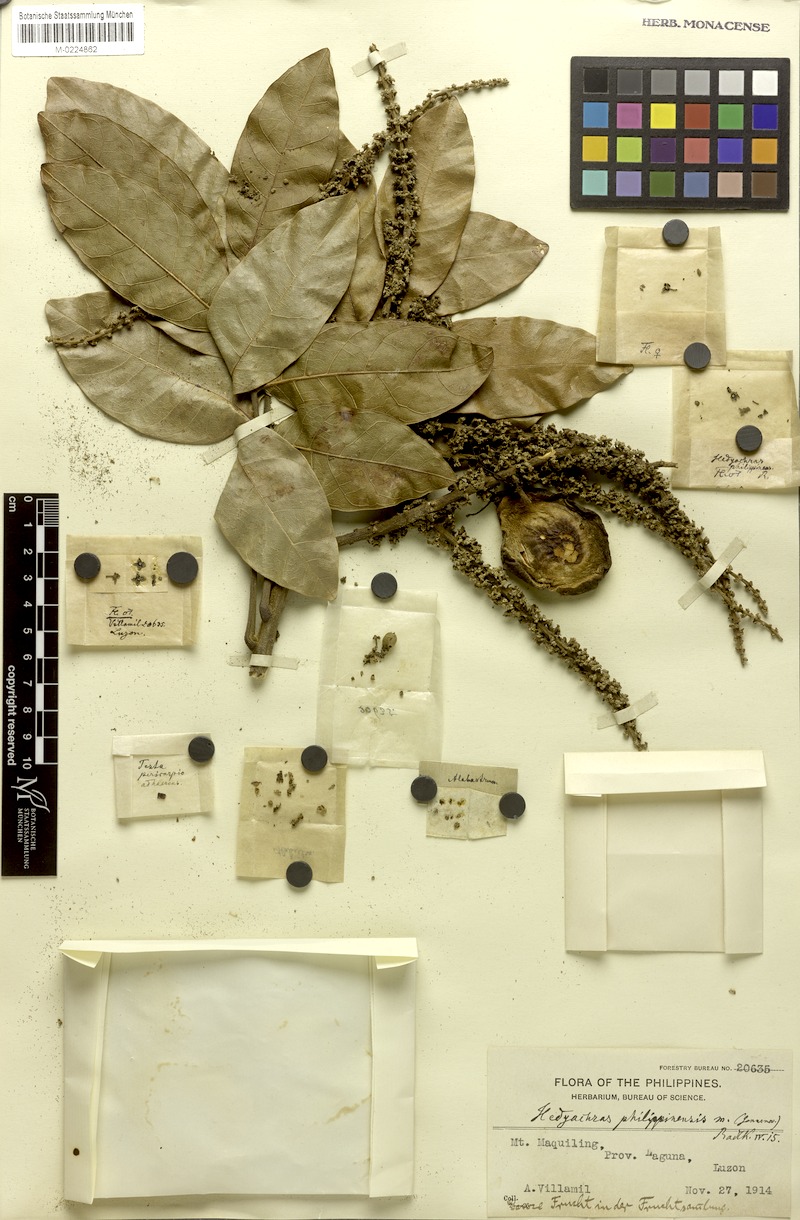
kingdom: Plantae
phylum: Tracheophyta
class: Magnoliopsida
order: Sapindales
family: Sapindaceae
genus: Glenniea
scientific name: Glenniea philippinensis
